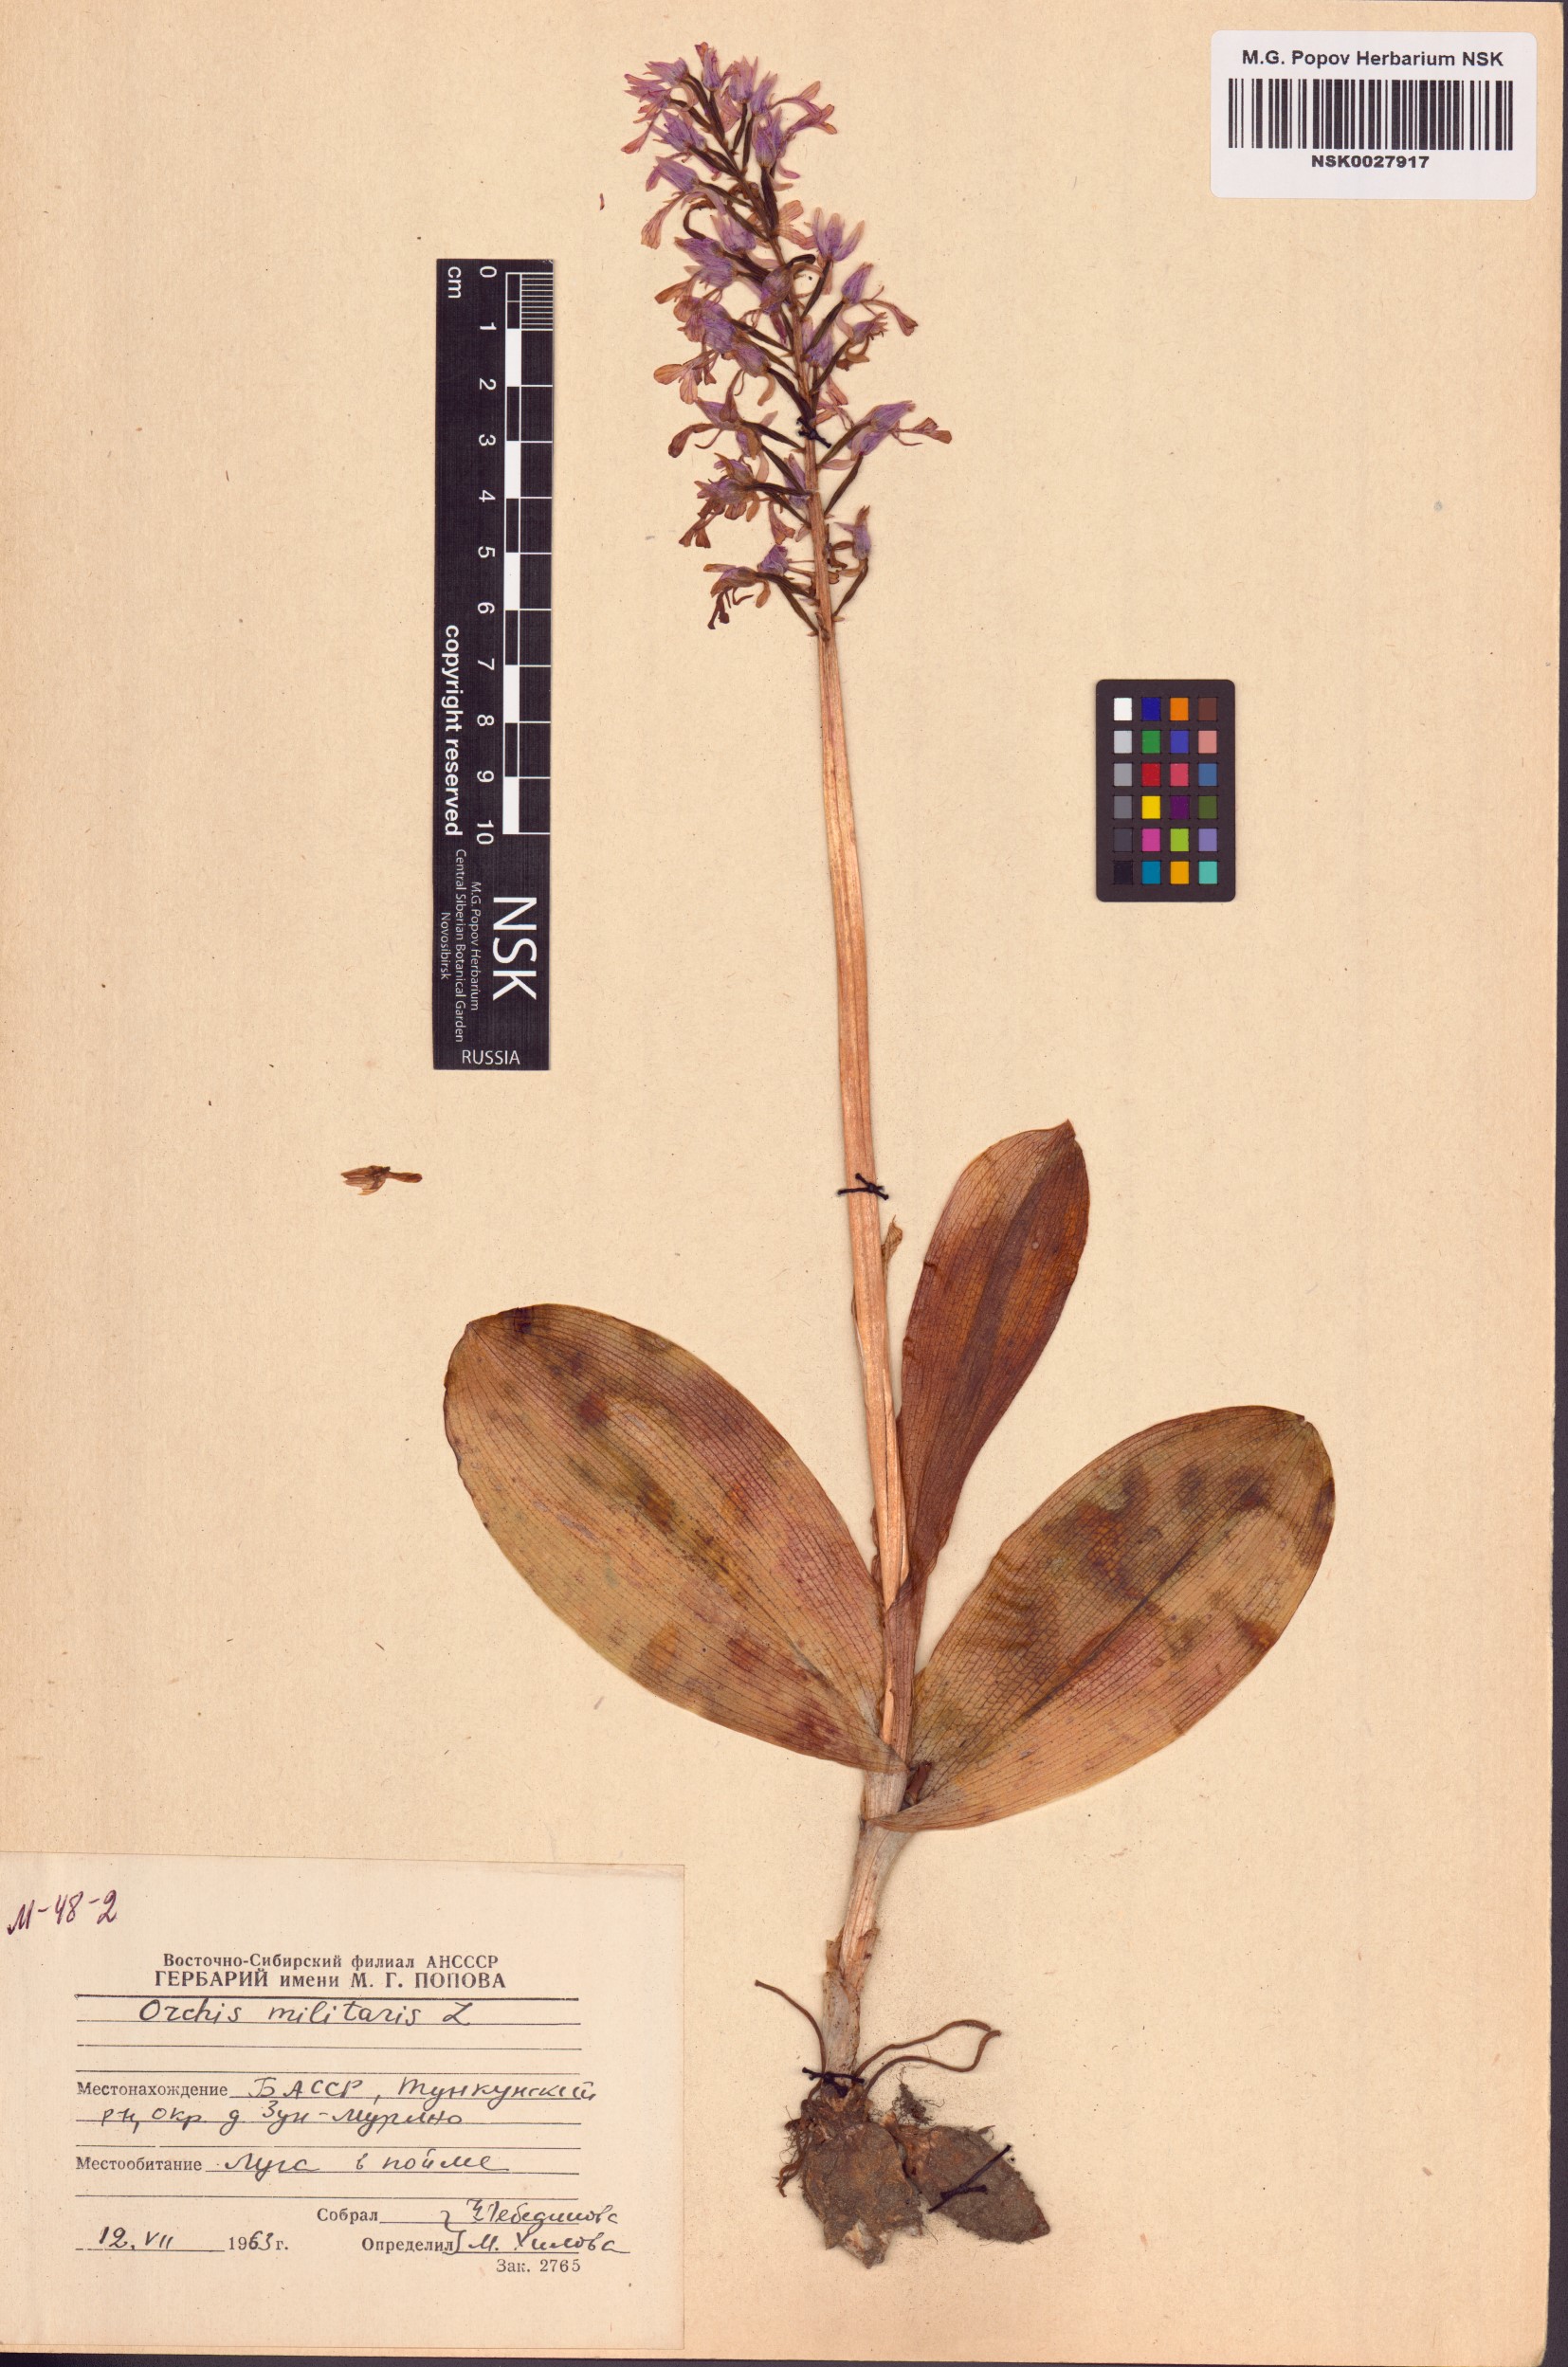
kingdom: Plantae
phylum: Tracheophyta
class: Liliopsida
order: Asparagales
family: Orchidaceae
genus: Orchis
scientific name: Orchis militaris
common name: Military orchid
